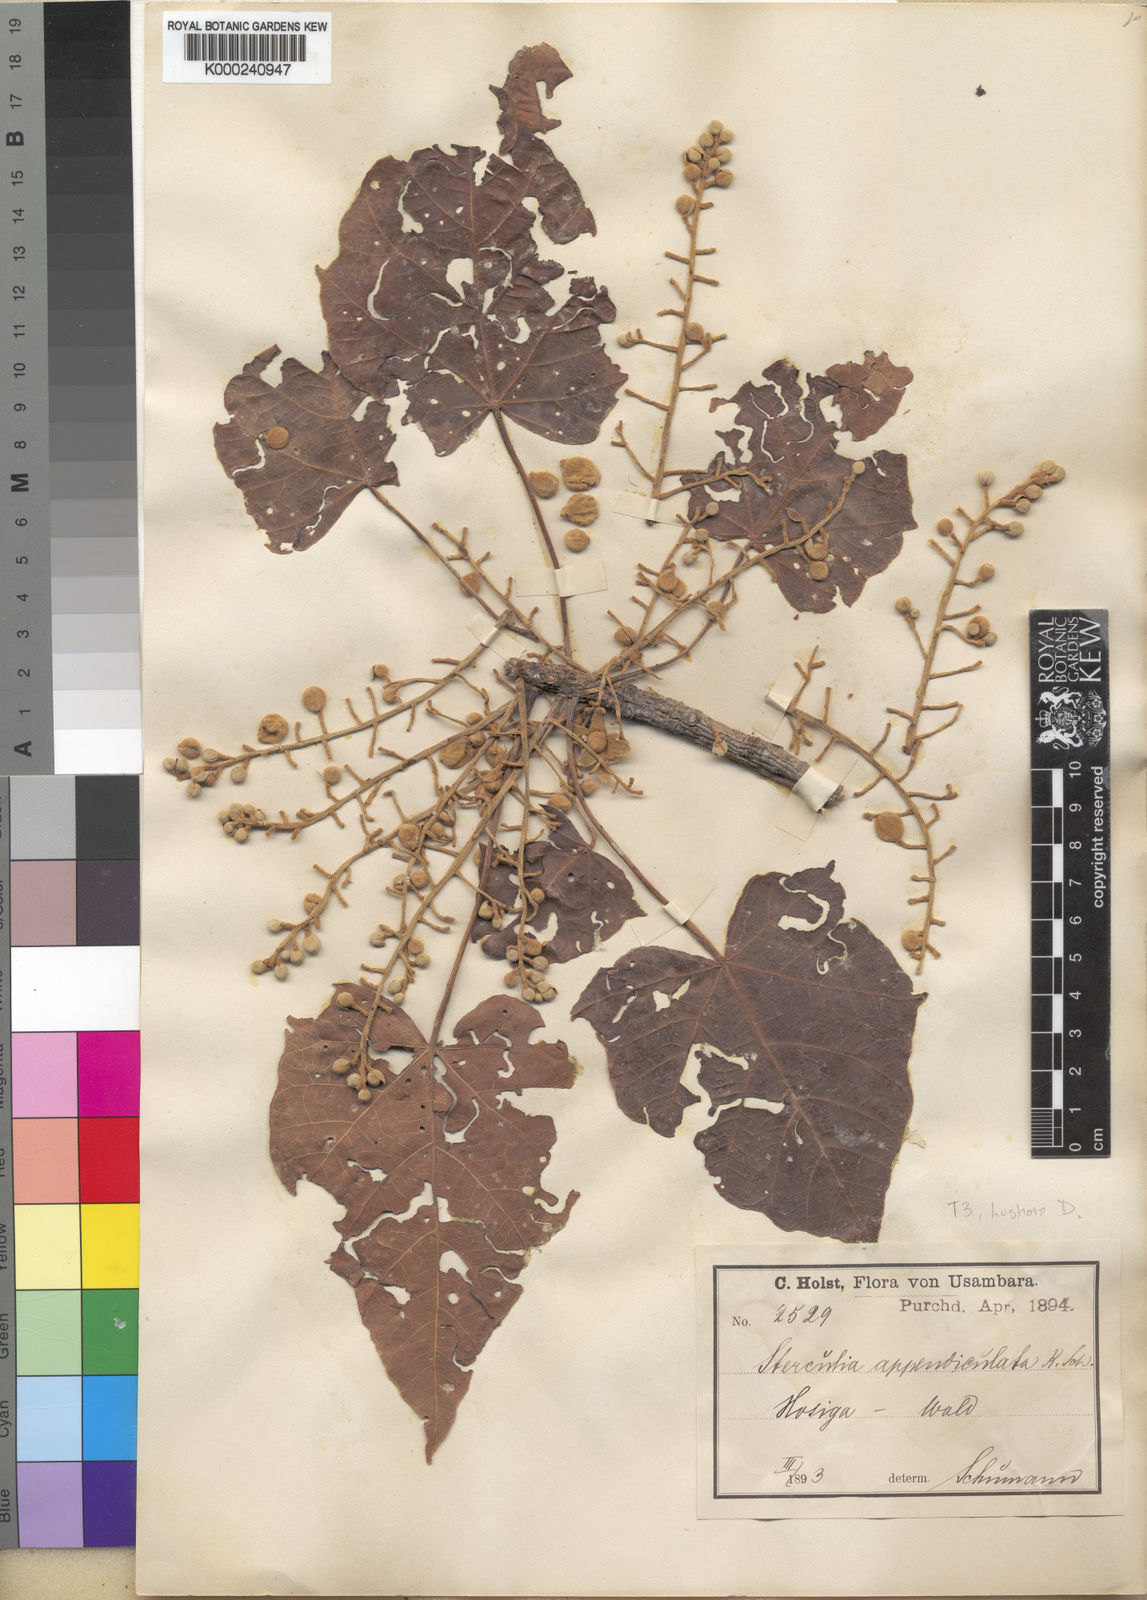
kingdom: Plantae
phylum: Tracheophyta
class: Magnoliopsida
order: Malvales
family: Malvaceae
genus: Sterculia
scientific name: Sterculia appendiculata
